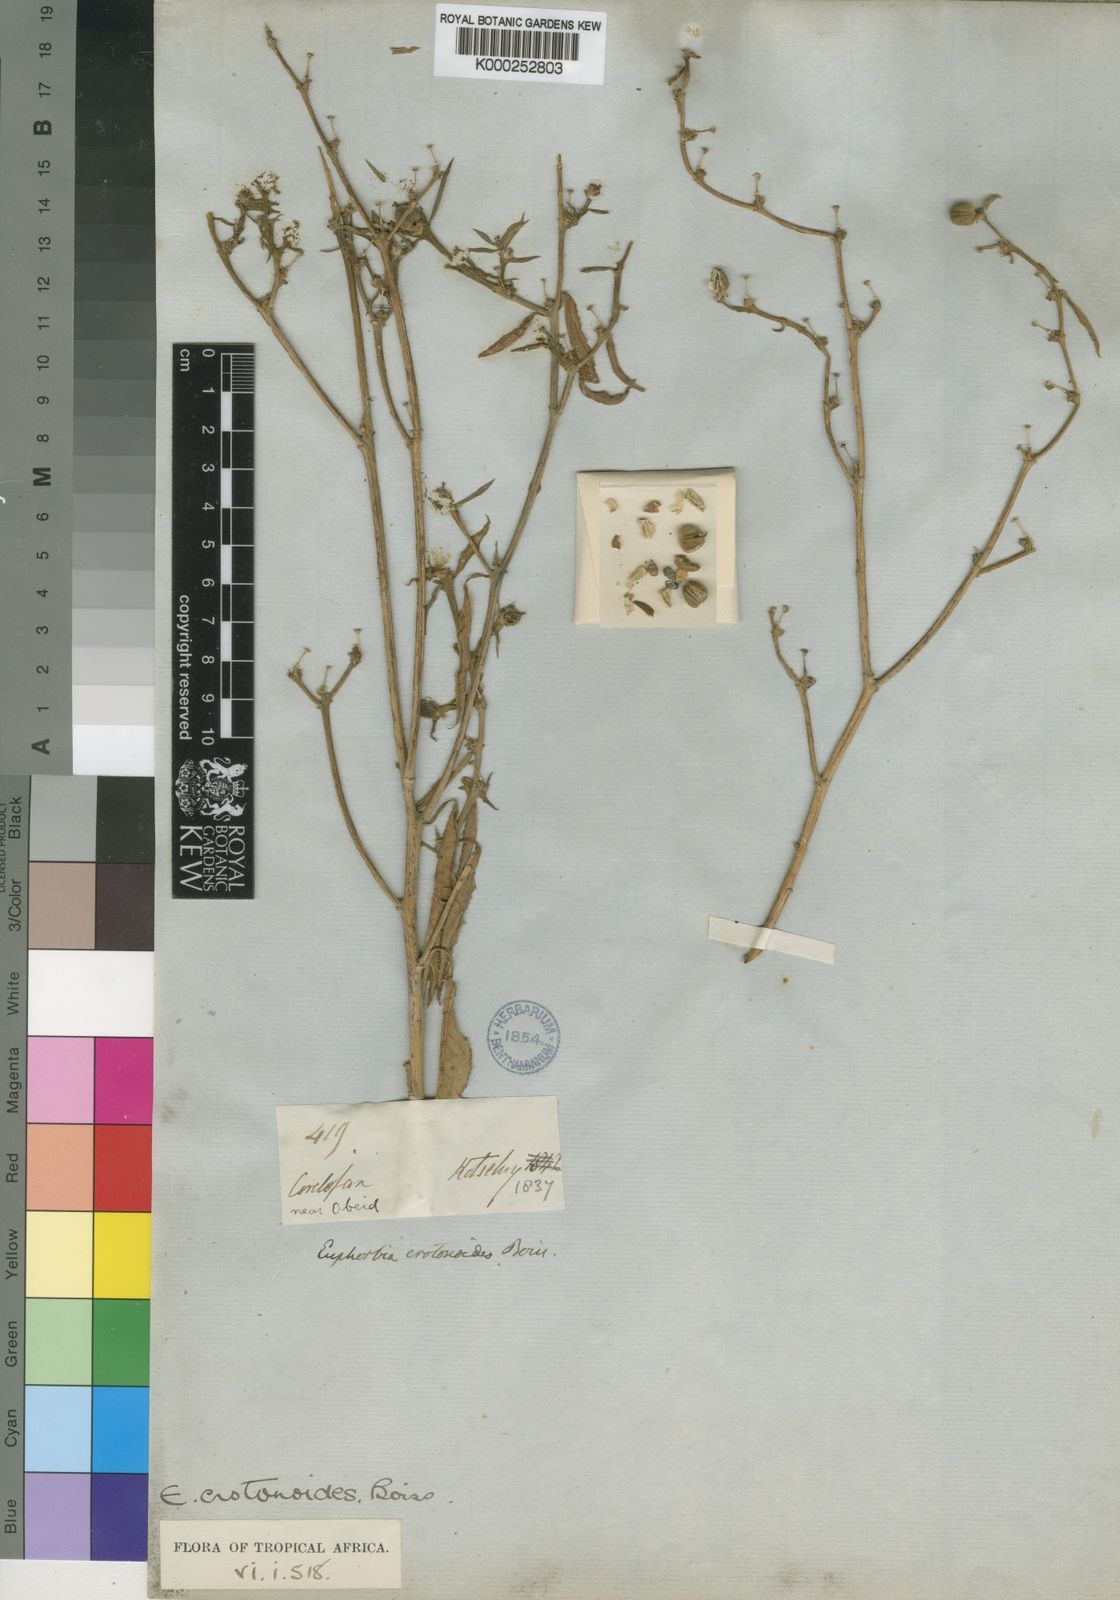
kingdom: Plantae
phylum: Tracheophyta
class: Magnoliopsida
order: Malpighiales
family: Euphorbiaceae
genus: Euphorbia
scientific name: Euphorbia crotonoides
